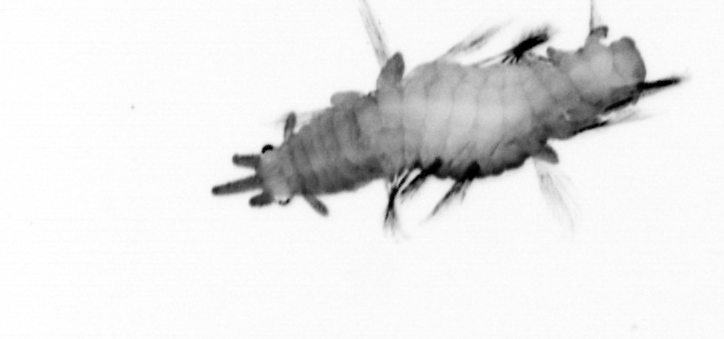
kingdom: Animalia
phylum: Annelida
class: Polychaeta
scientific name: Polychaeta
